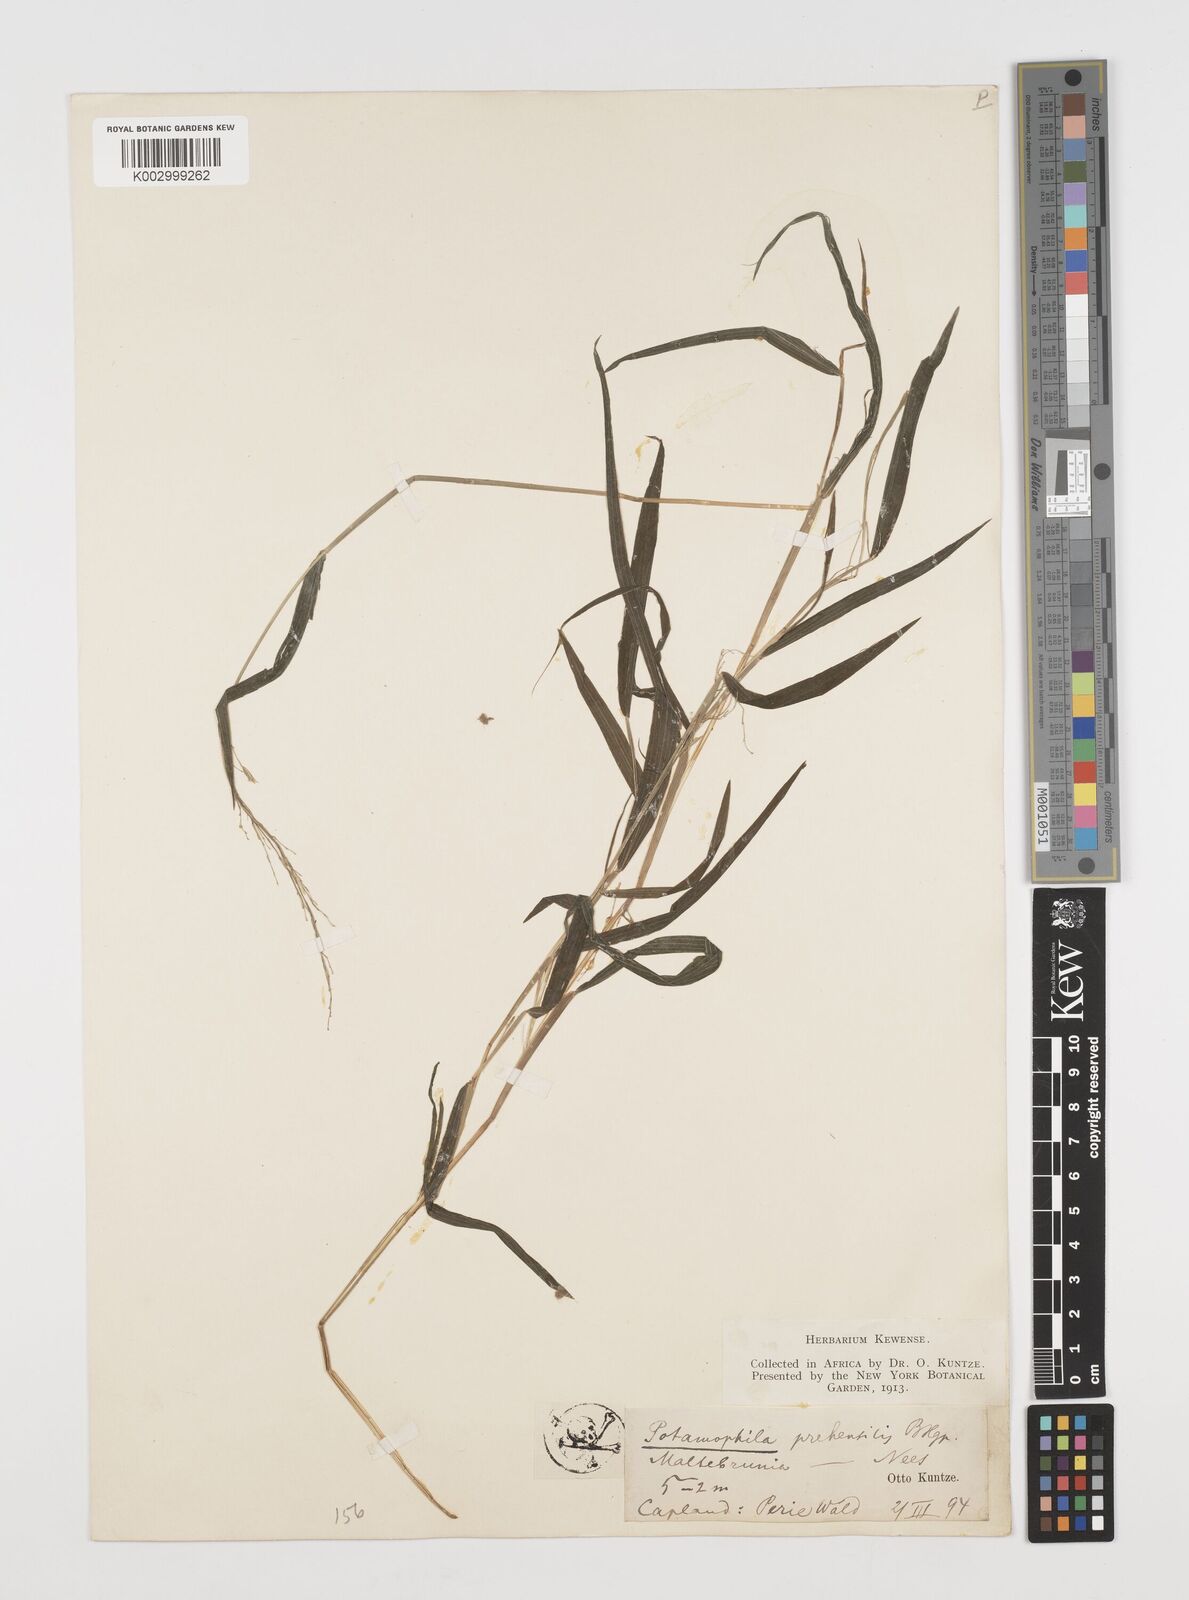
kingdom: Plantae
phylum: Tracheophyta
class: Liliopsida
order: Poales
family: Poaceae
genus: Prosphytochloa
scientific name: Prosphytochloa prehensilis
